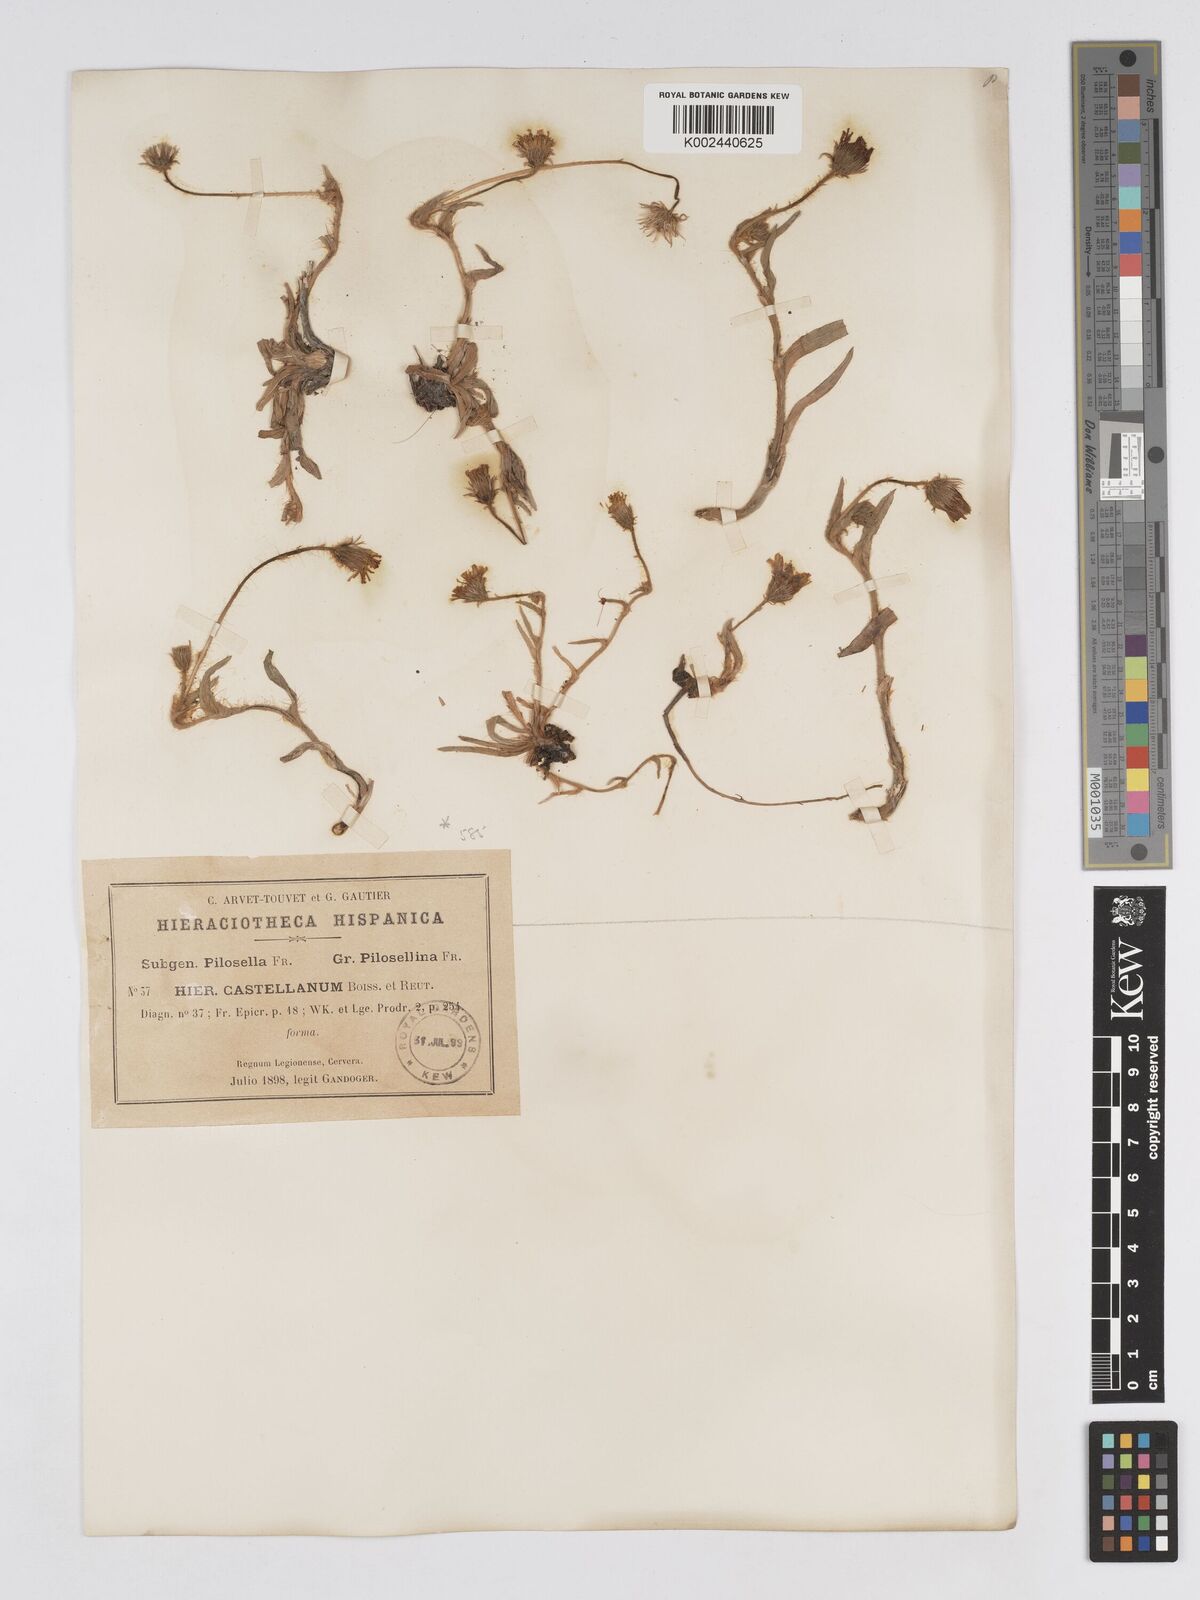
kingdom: Plantae
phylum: Tracheophyta
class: Magnoliopsida
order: Asterales
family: Asteraceae
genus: Pilosella
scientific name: Pilosella castellana
